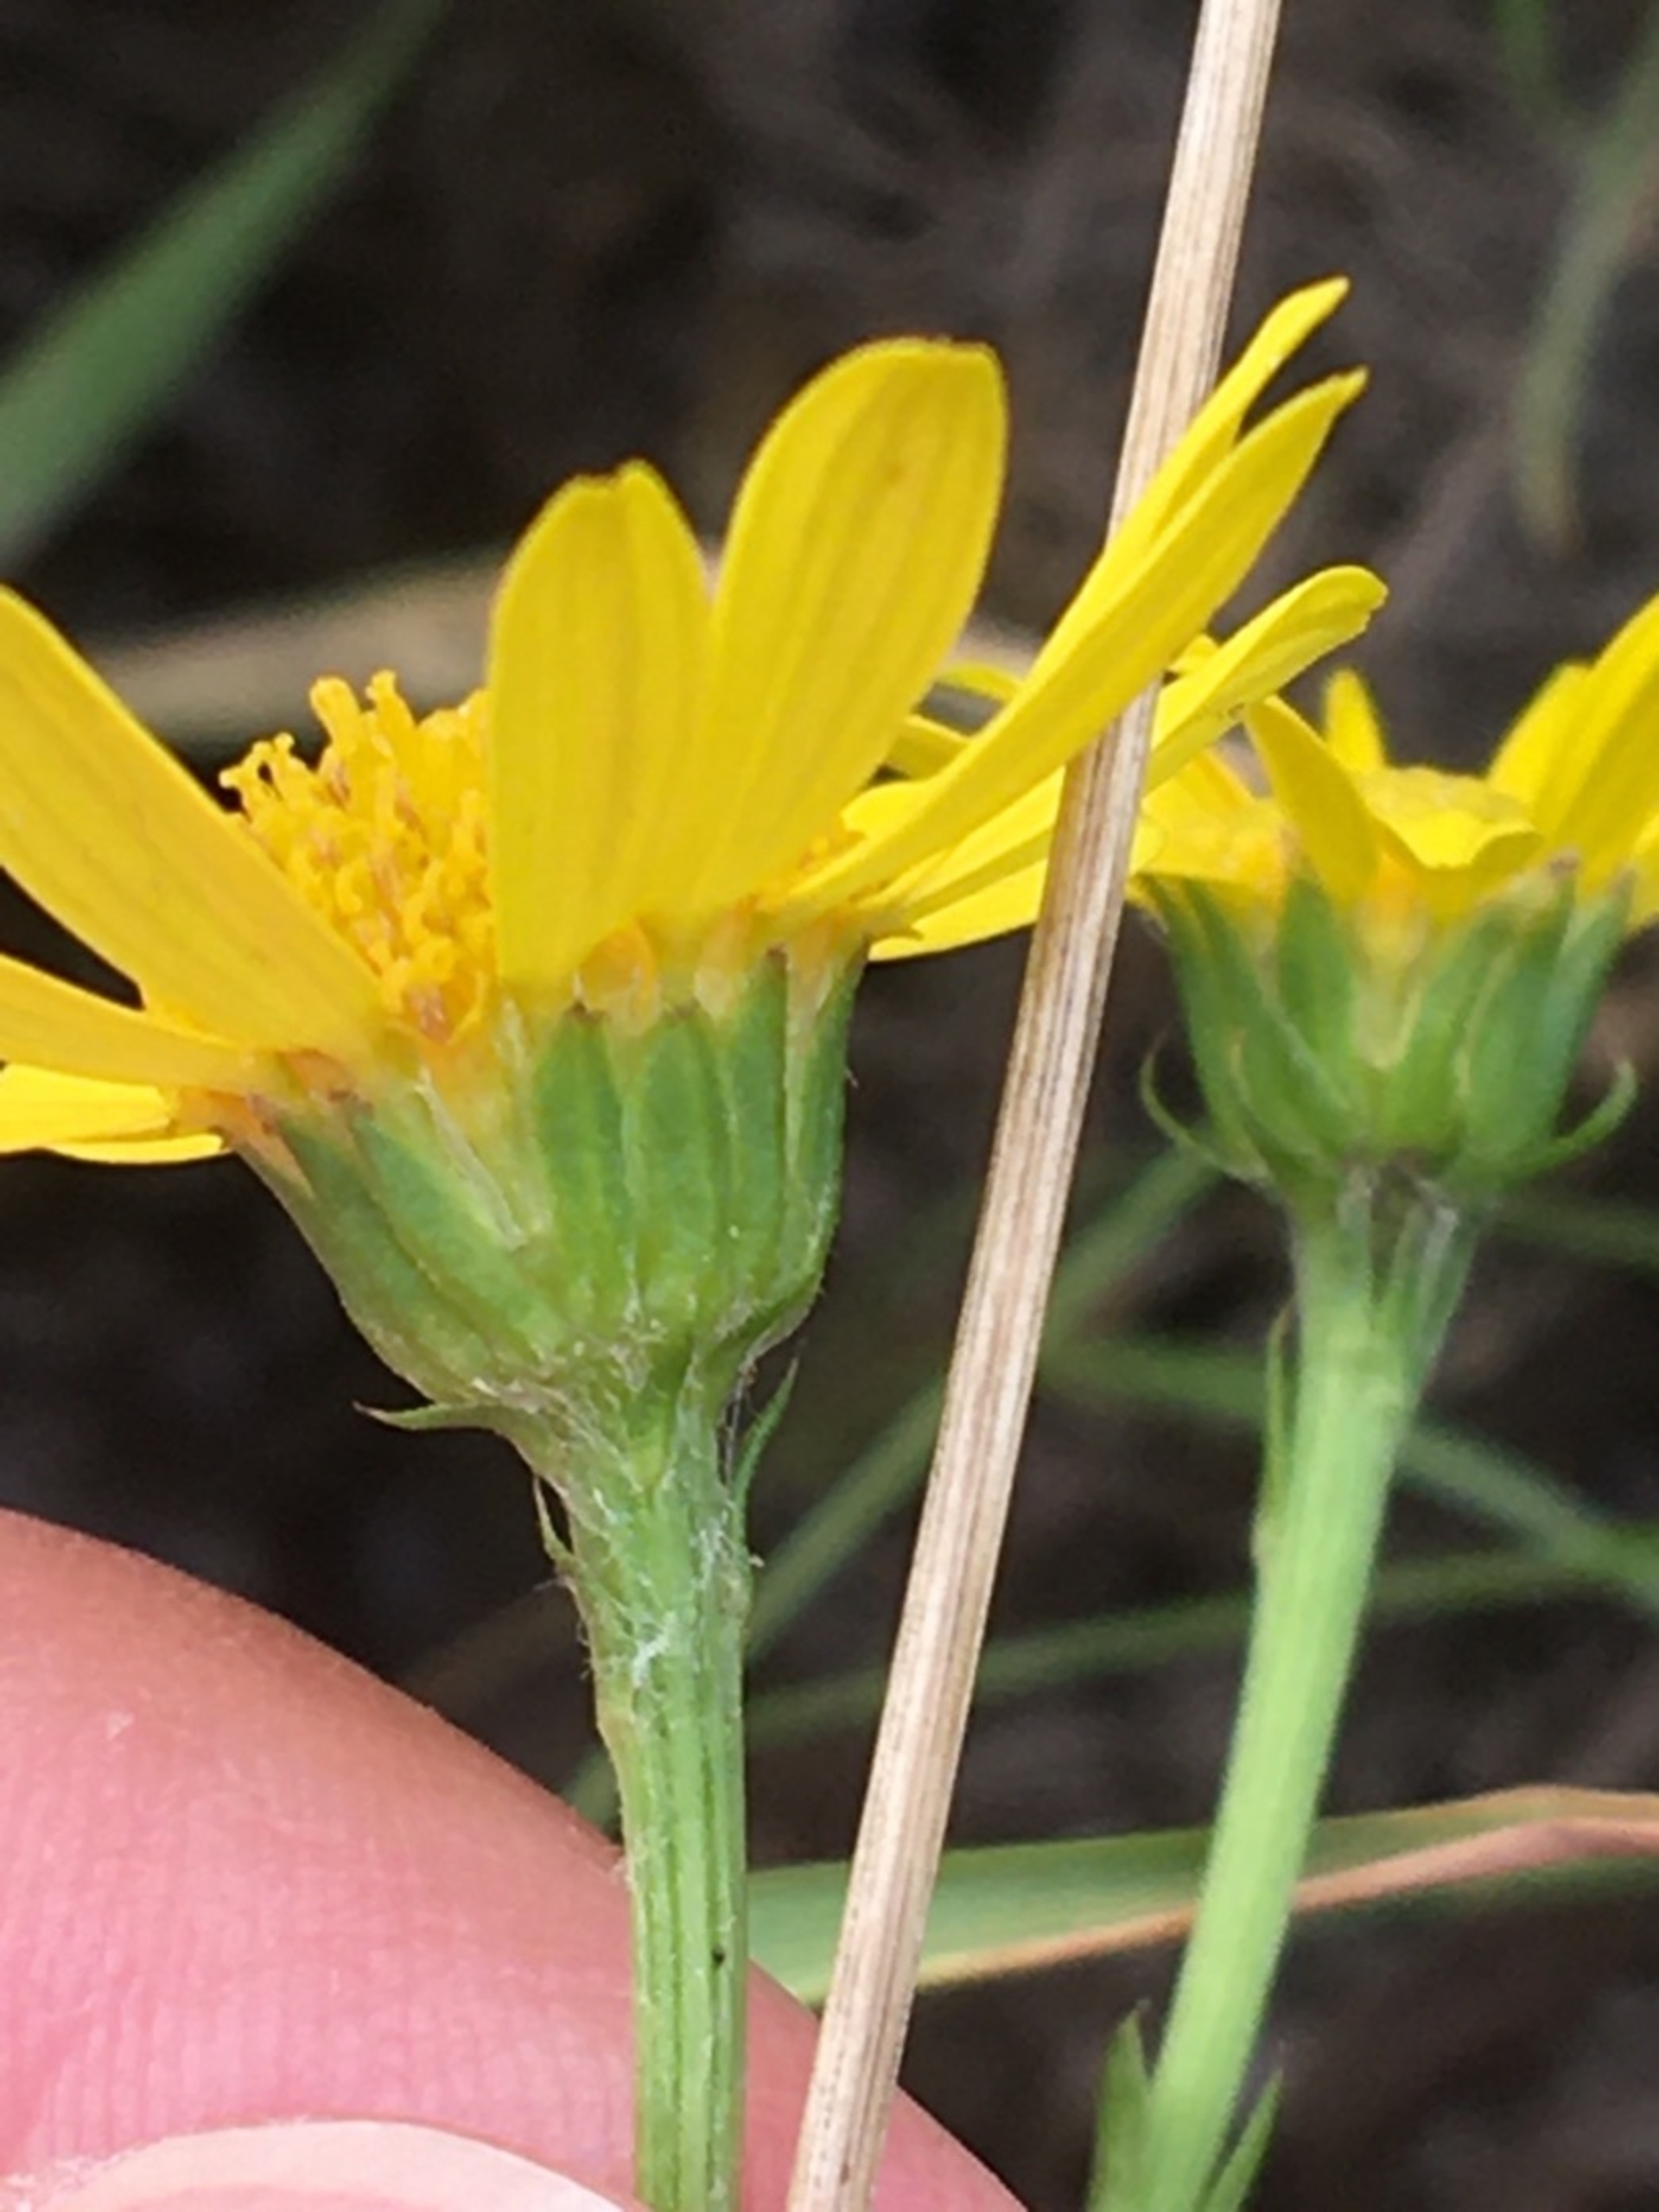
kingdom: Plantae
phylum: Tracheophyta
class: Magnoliopsida
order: Asterales
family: Asteraceae
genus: Jacobaea
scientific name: Jacobaea aquatica
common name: Vand-brandbæger
